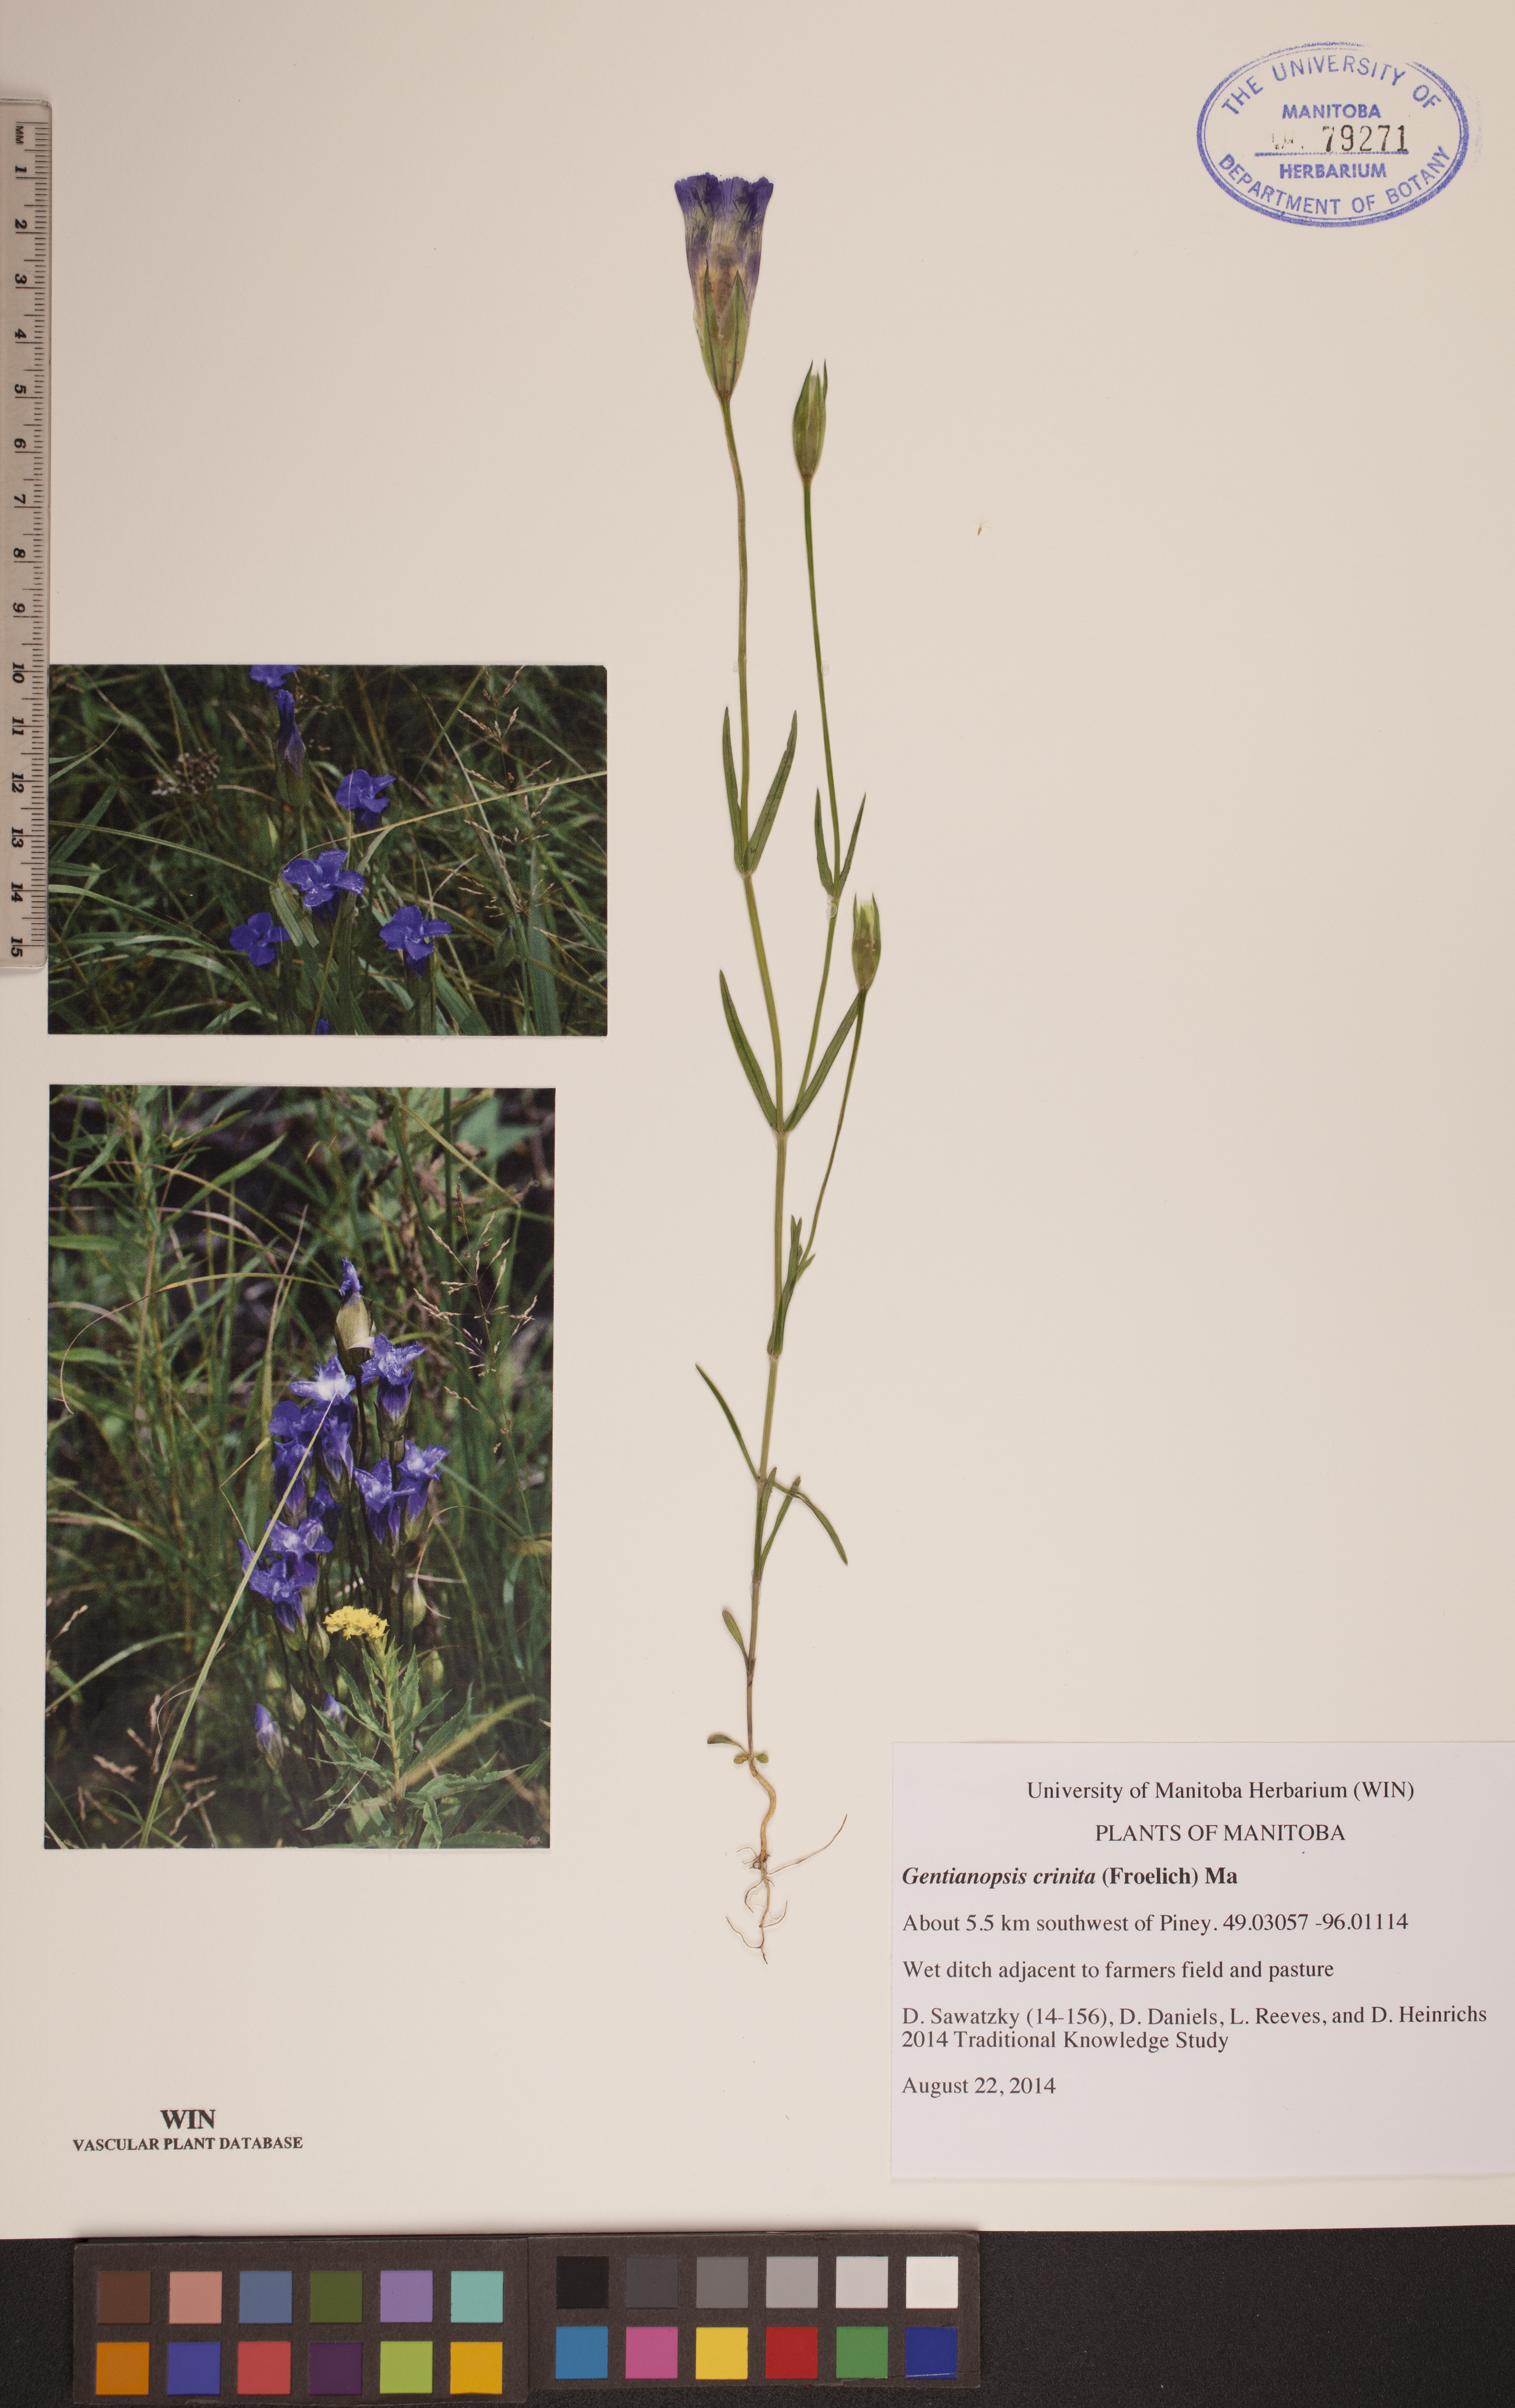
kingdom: Plantae
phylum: Tracheophyta
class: Magnoliopsida
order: Gentianales
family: Gentianaceae
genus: Gentianopsis
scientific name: Gentianopsis crinita
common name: Fringed-gentian
